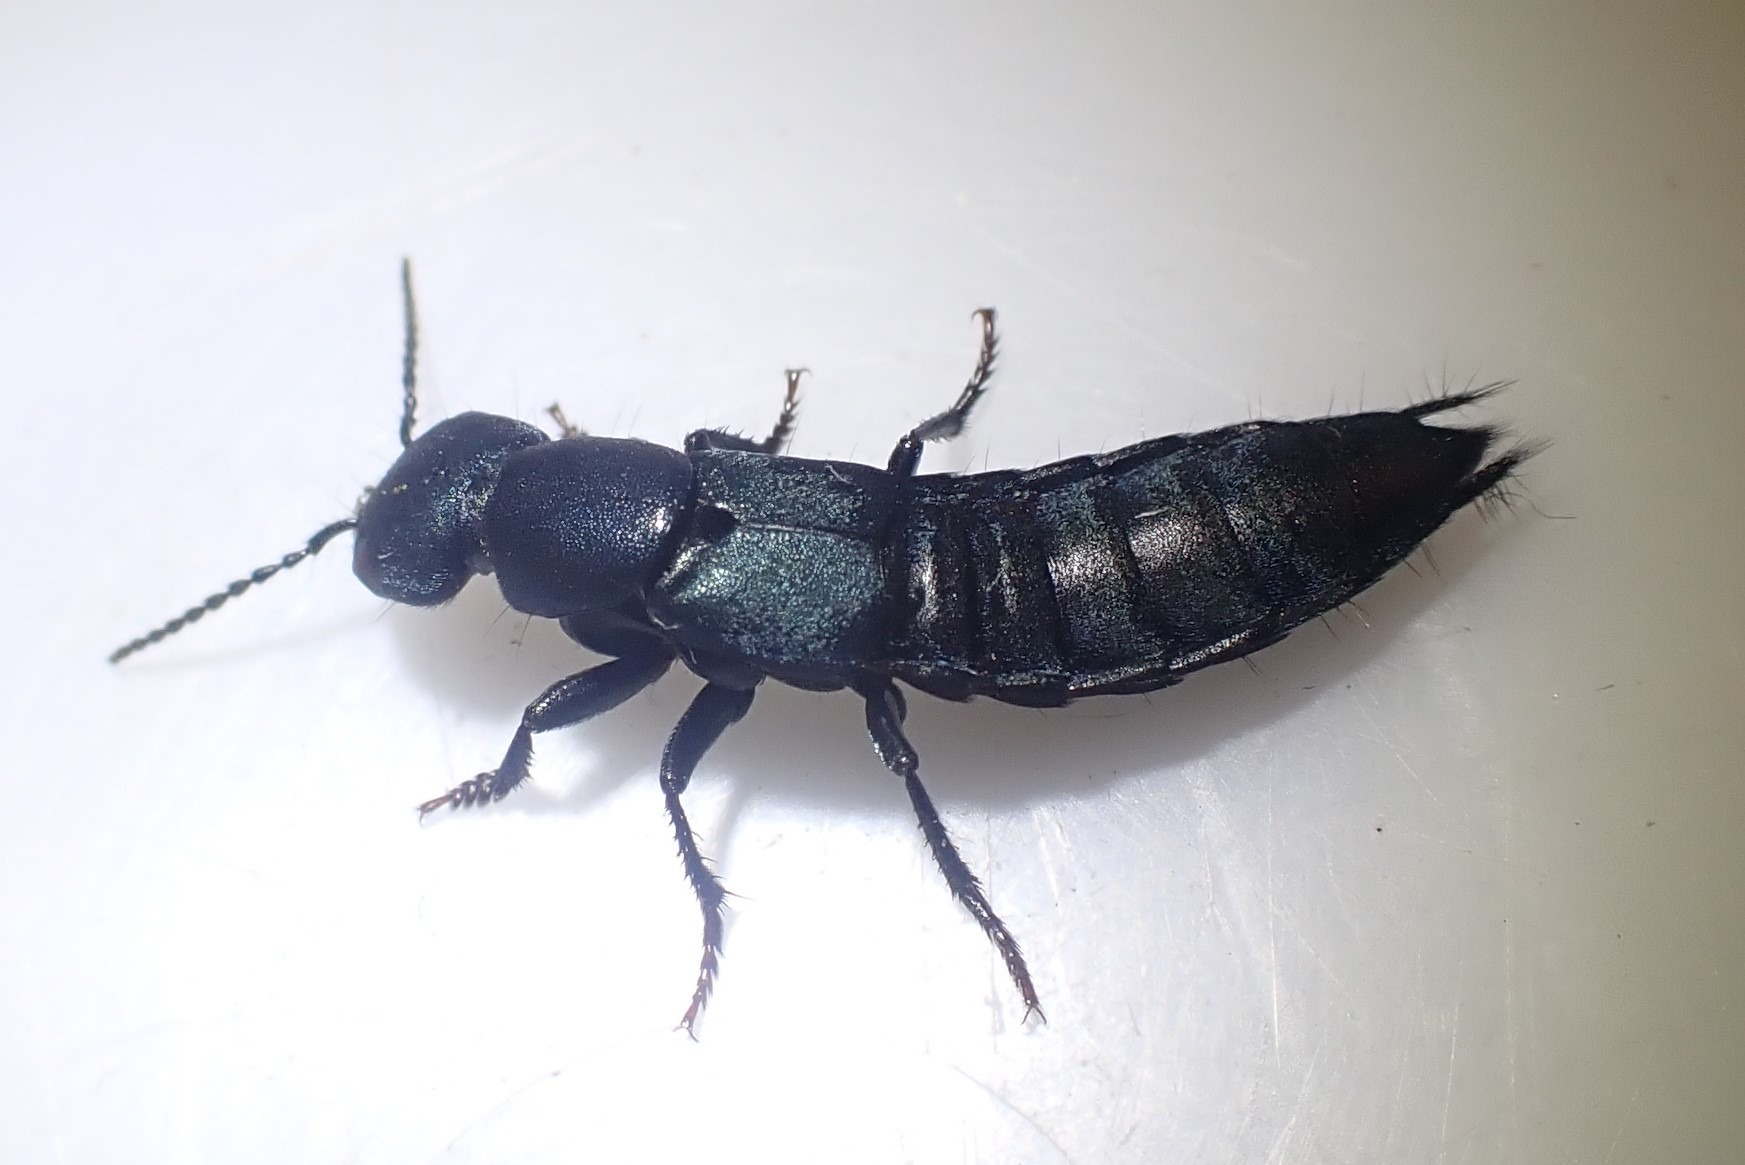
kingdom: Animalia
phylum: Arthropoda
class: Insecta
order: Coleoptera
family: Staphylinidae
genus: Ocypus
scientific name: Ocypus ophthalmicus
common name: Blå kæmperovbille
